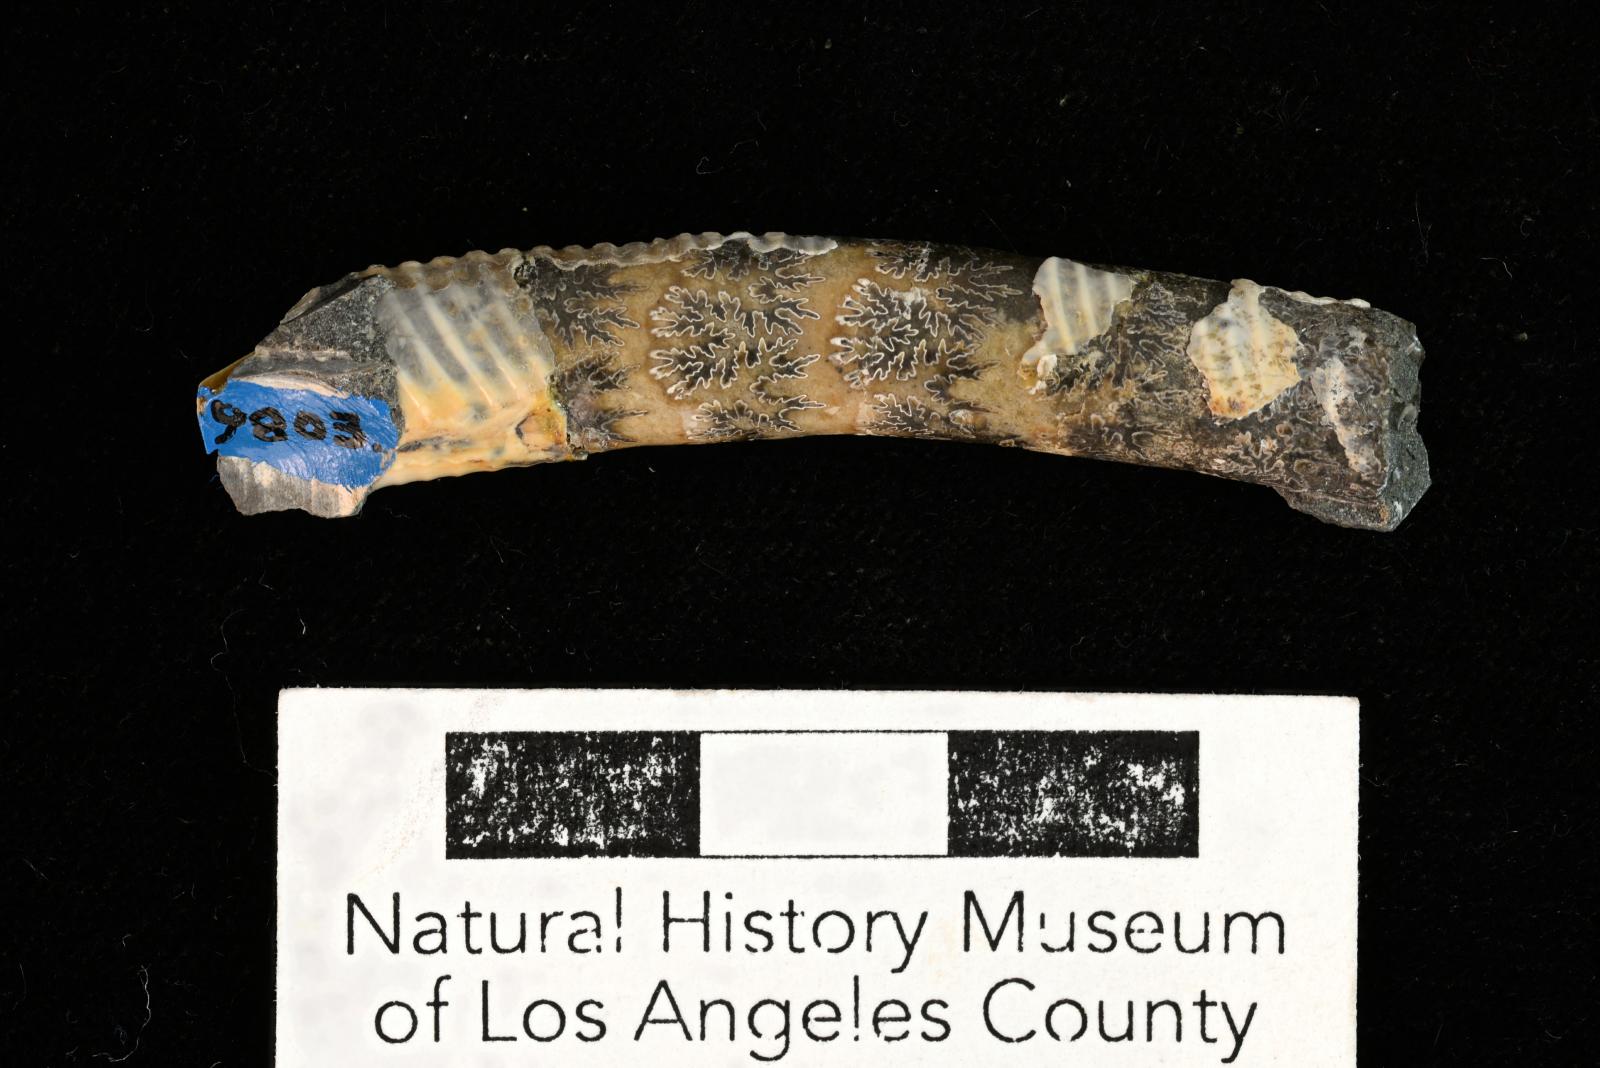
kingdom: Animalia
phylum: Mollusca
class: Cephalopoda
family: Diplomoceratidae
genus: Pseudoxybeloceras
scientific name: Pseudoxybeloceras Ancyloceras lineatus
